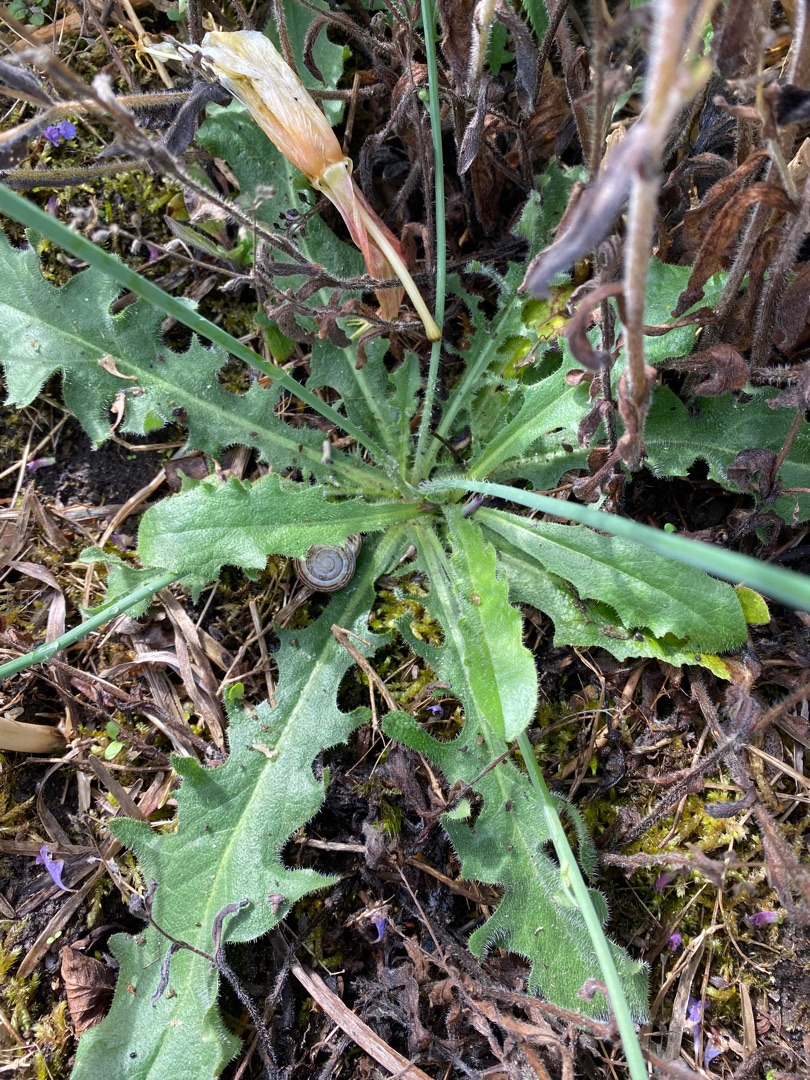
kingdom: Plantae
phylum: Tracheophyta
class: Magnoliopsida
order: Asterales
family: Asteraceae
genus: Hypochaeris
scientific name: Hypochaeris radicata
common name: Almindelig kongepen
